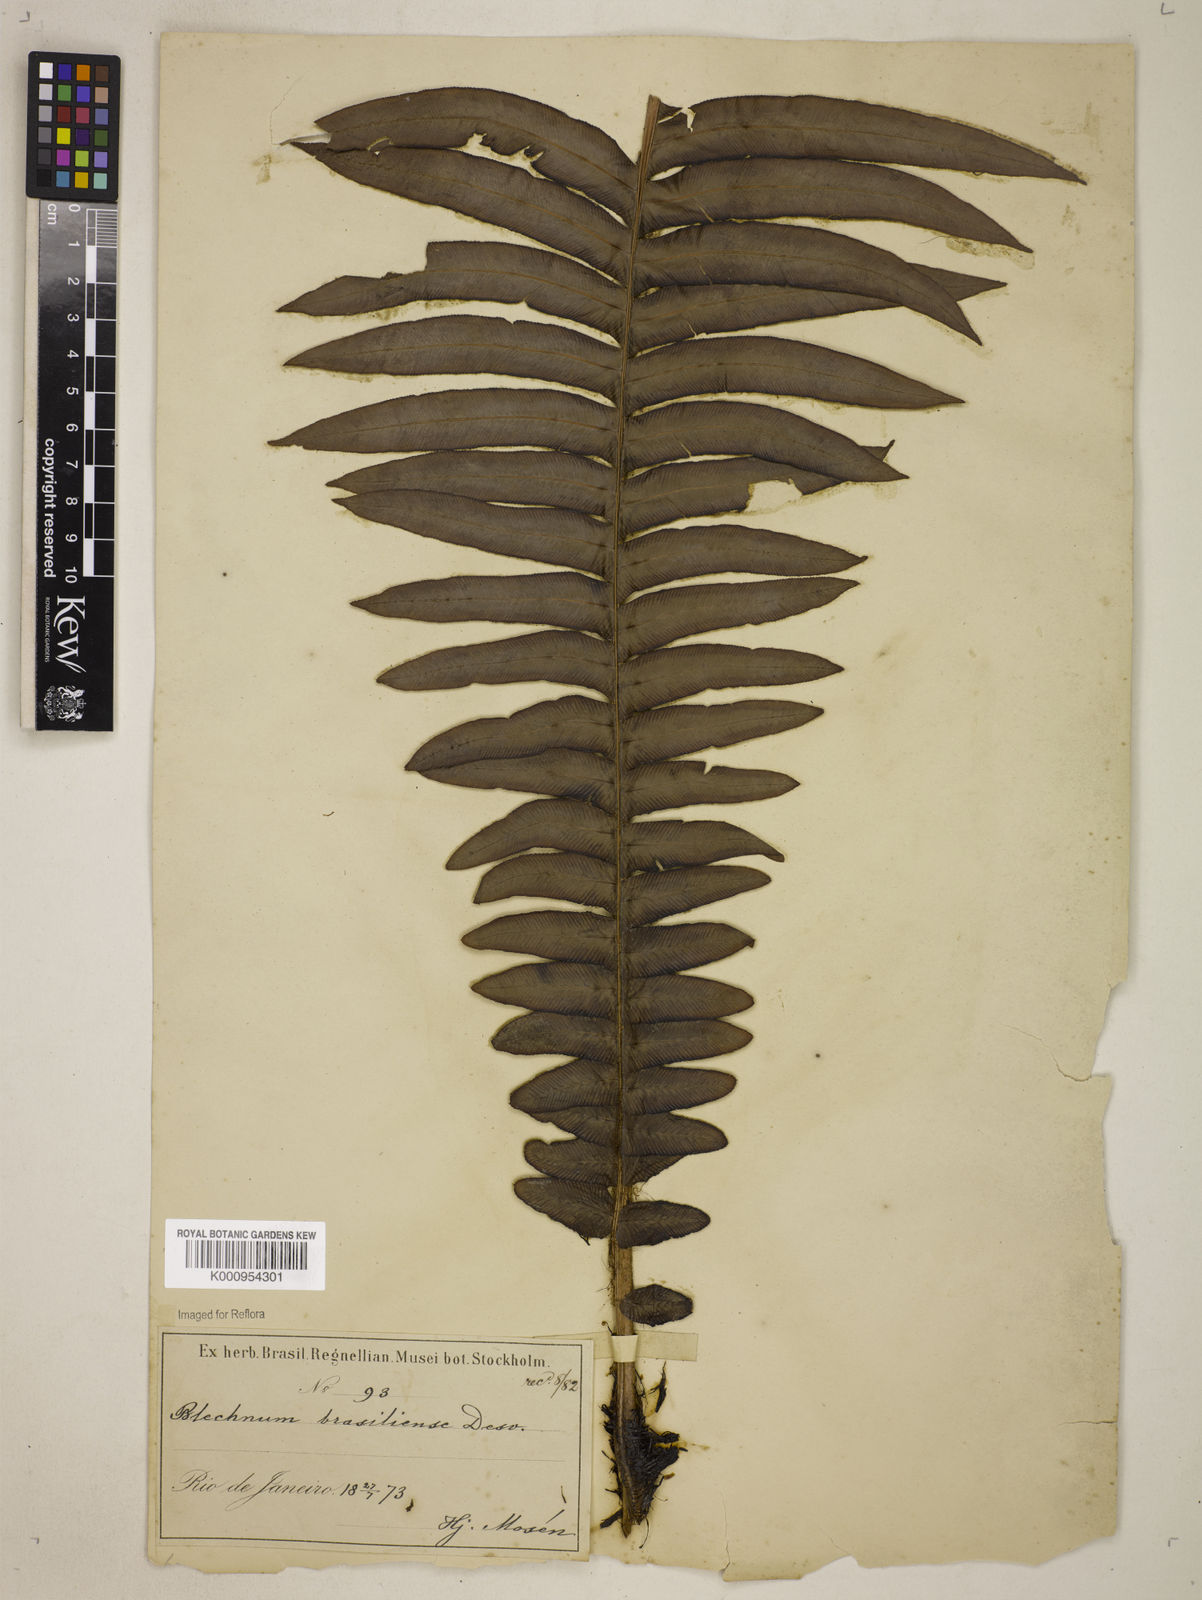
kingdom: Plantae
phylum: Tracheophyta
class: Polypodiopsida
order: Polypodiales
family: Blechnaceae
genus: Neoblechnum
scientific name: Neoblechnum brasiliense
